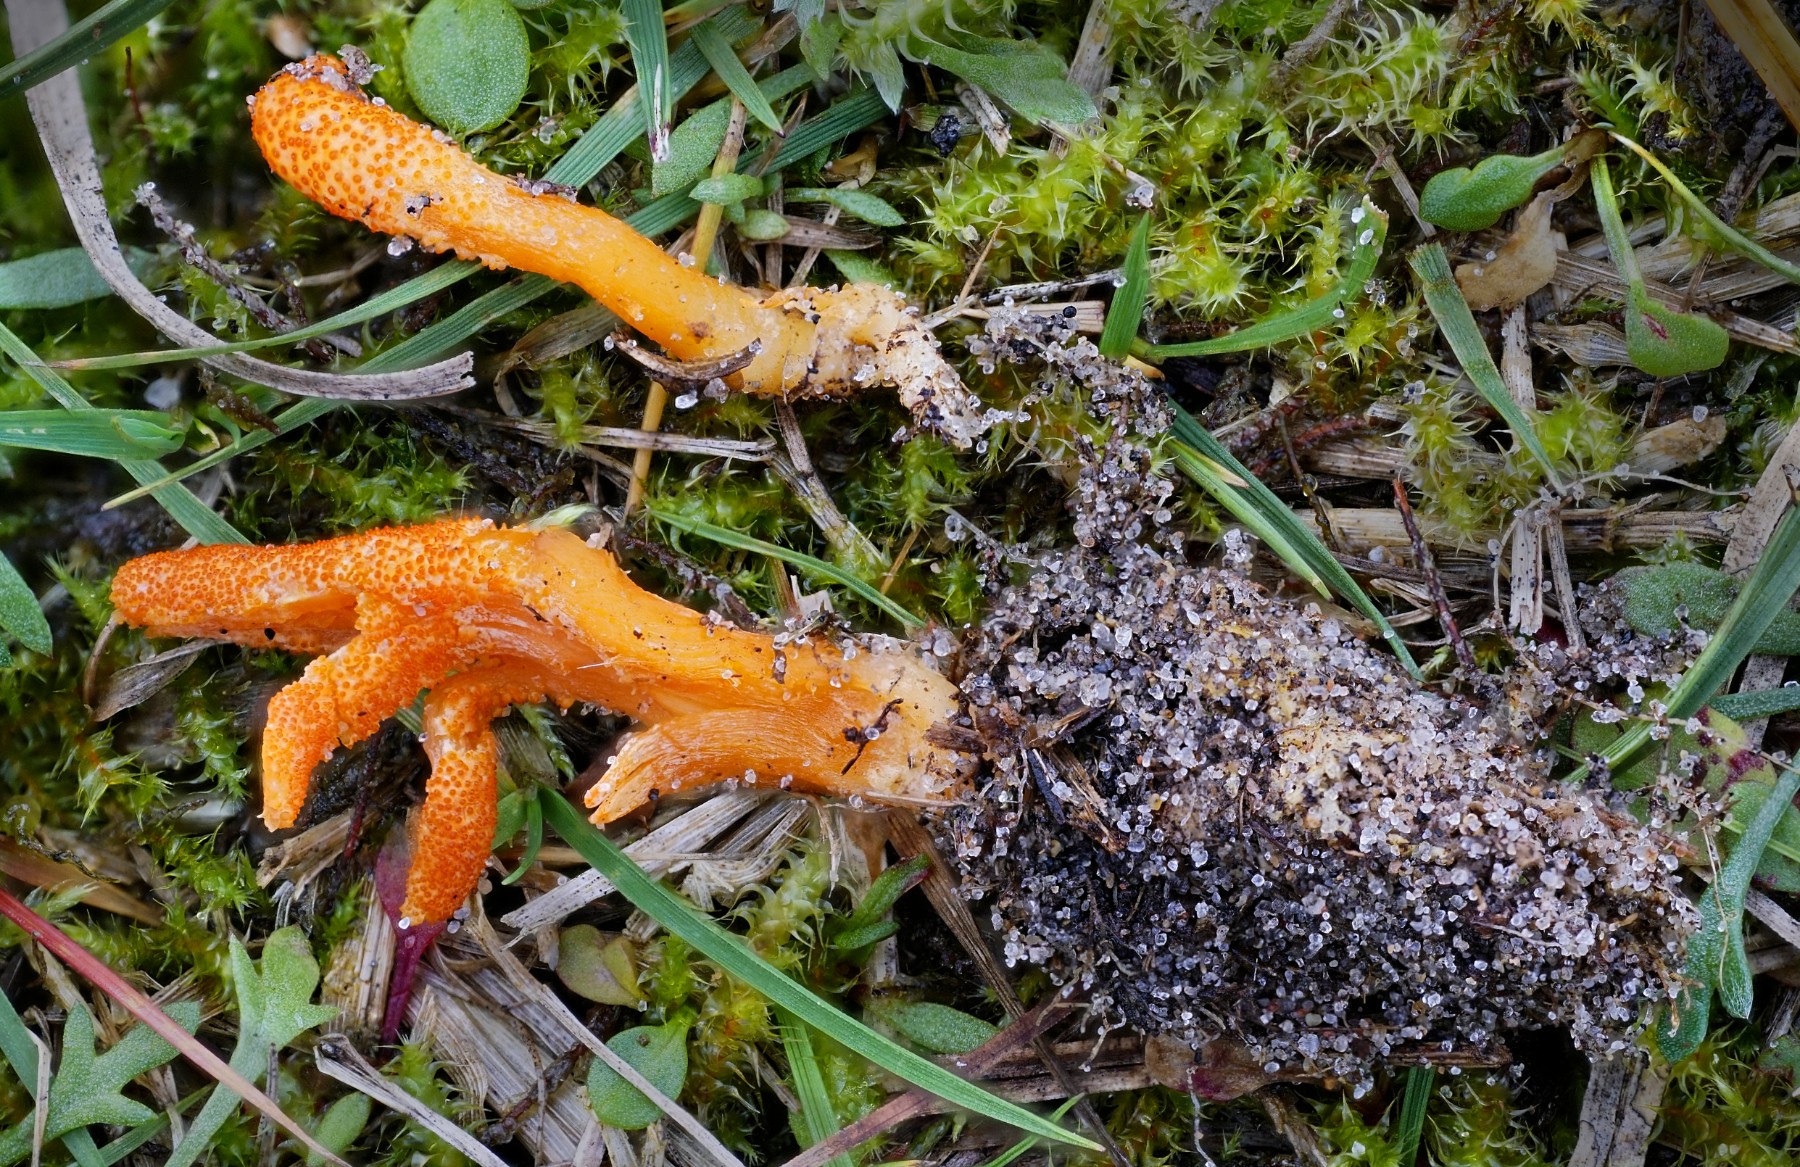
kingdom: Fungi
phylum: Ascomycota
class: Sordariomycetes
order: Hypocreales
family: Cordycipitaceae
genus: Cordyceps
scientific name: Cordyceps militaris
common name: puppe-snyltekølle
